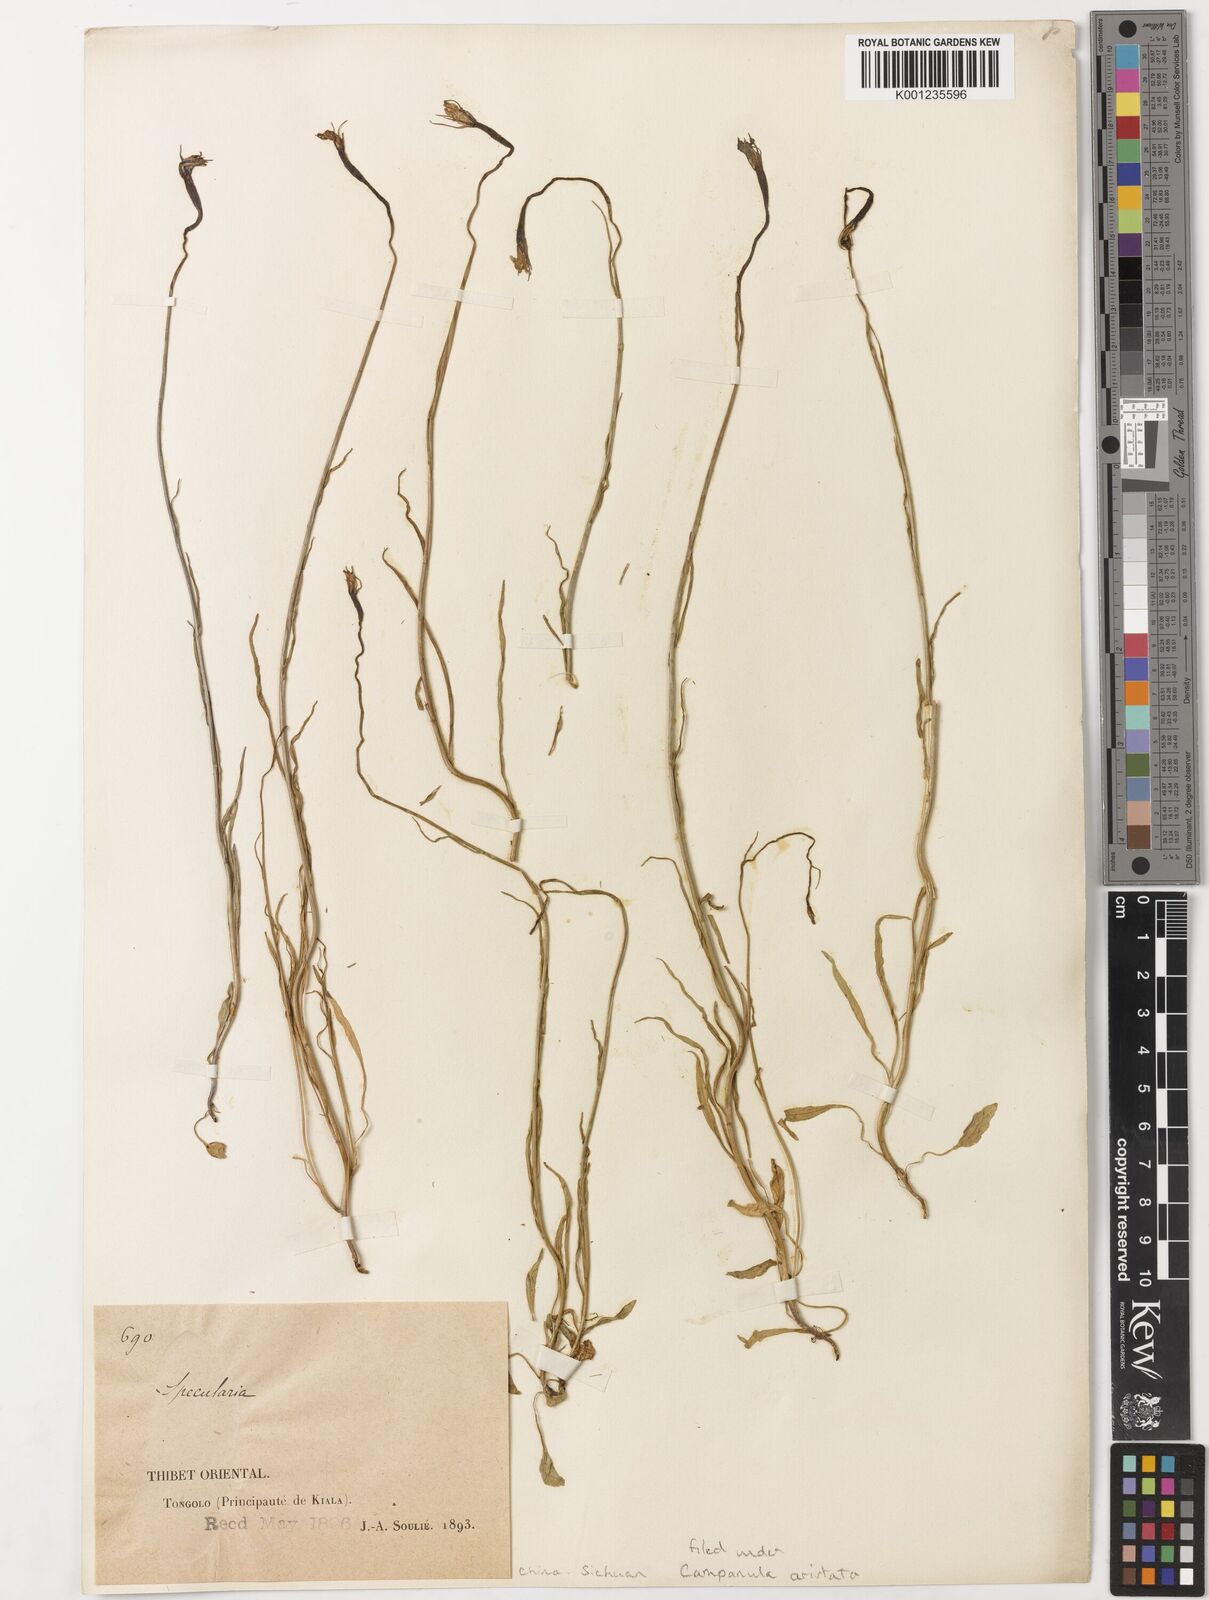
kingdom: Plantae
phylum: Tracheophyta
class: Magnoliopsida
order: Asterales
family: Campanulaceae
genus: Specularia
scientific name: Specularia
